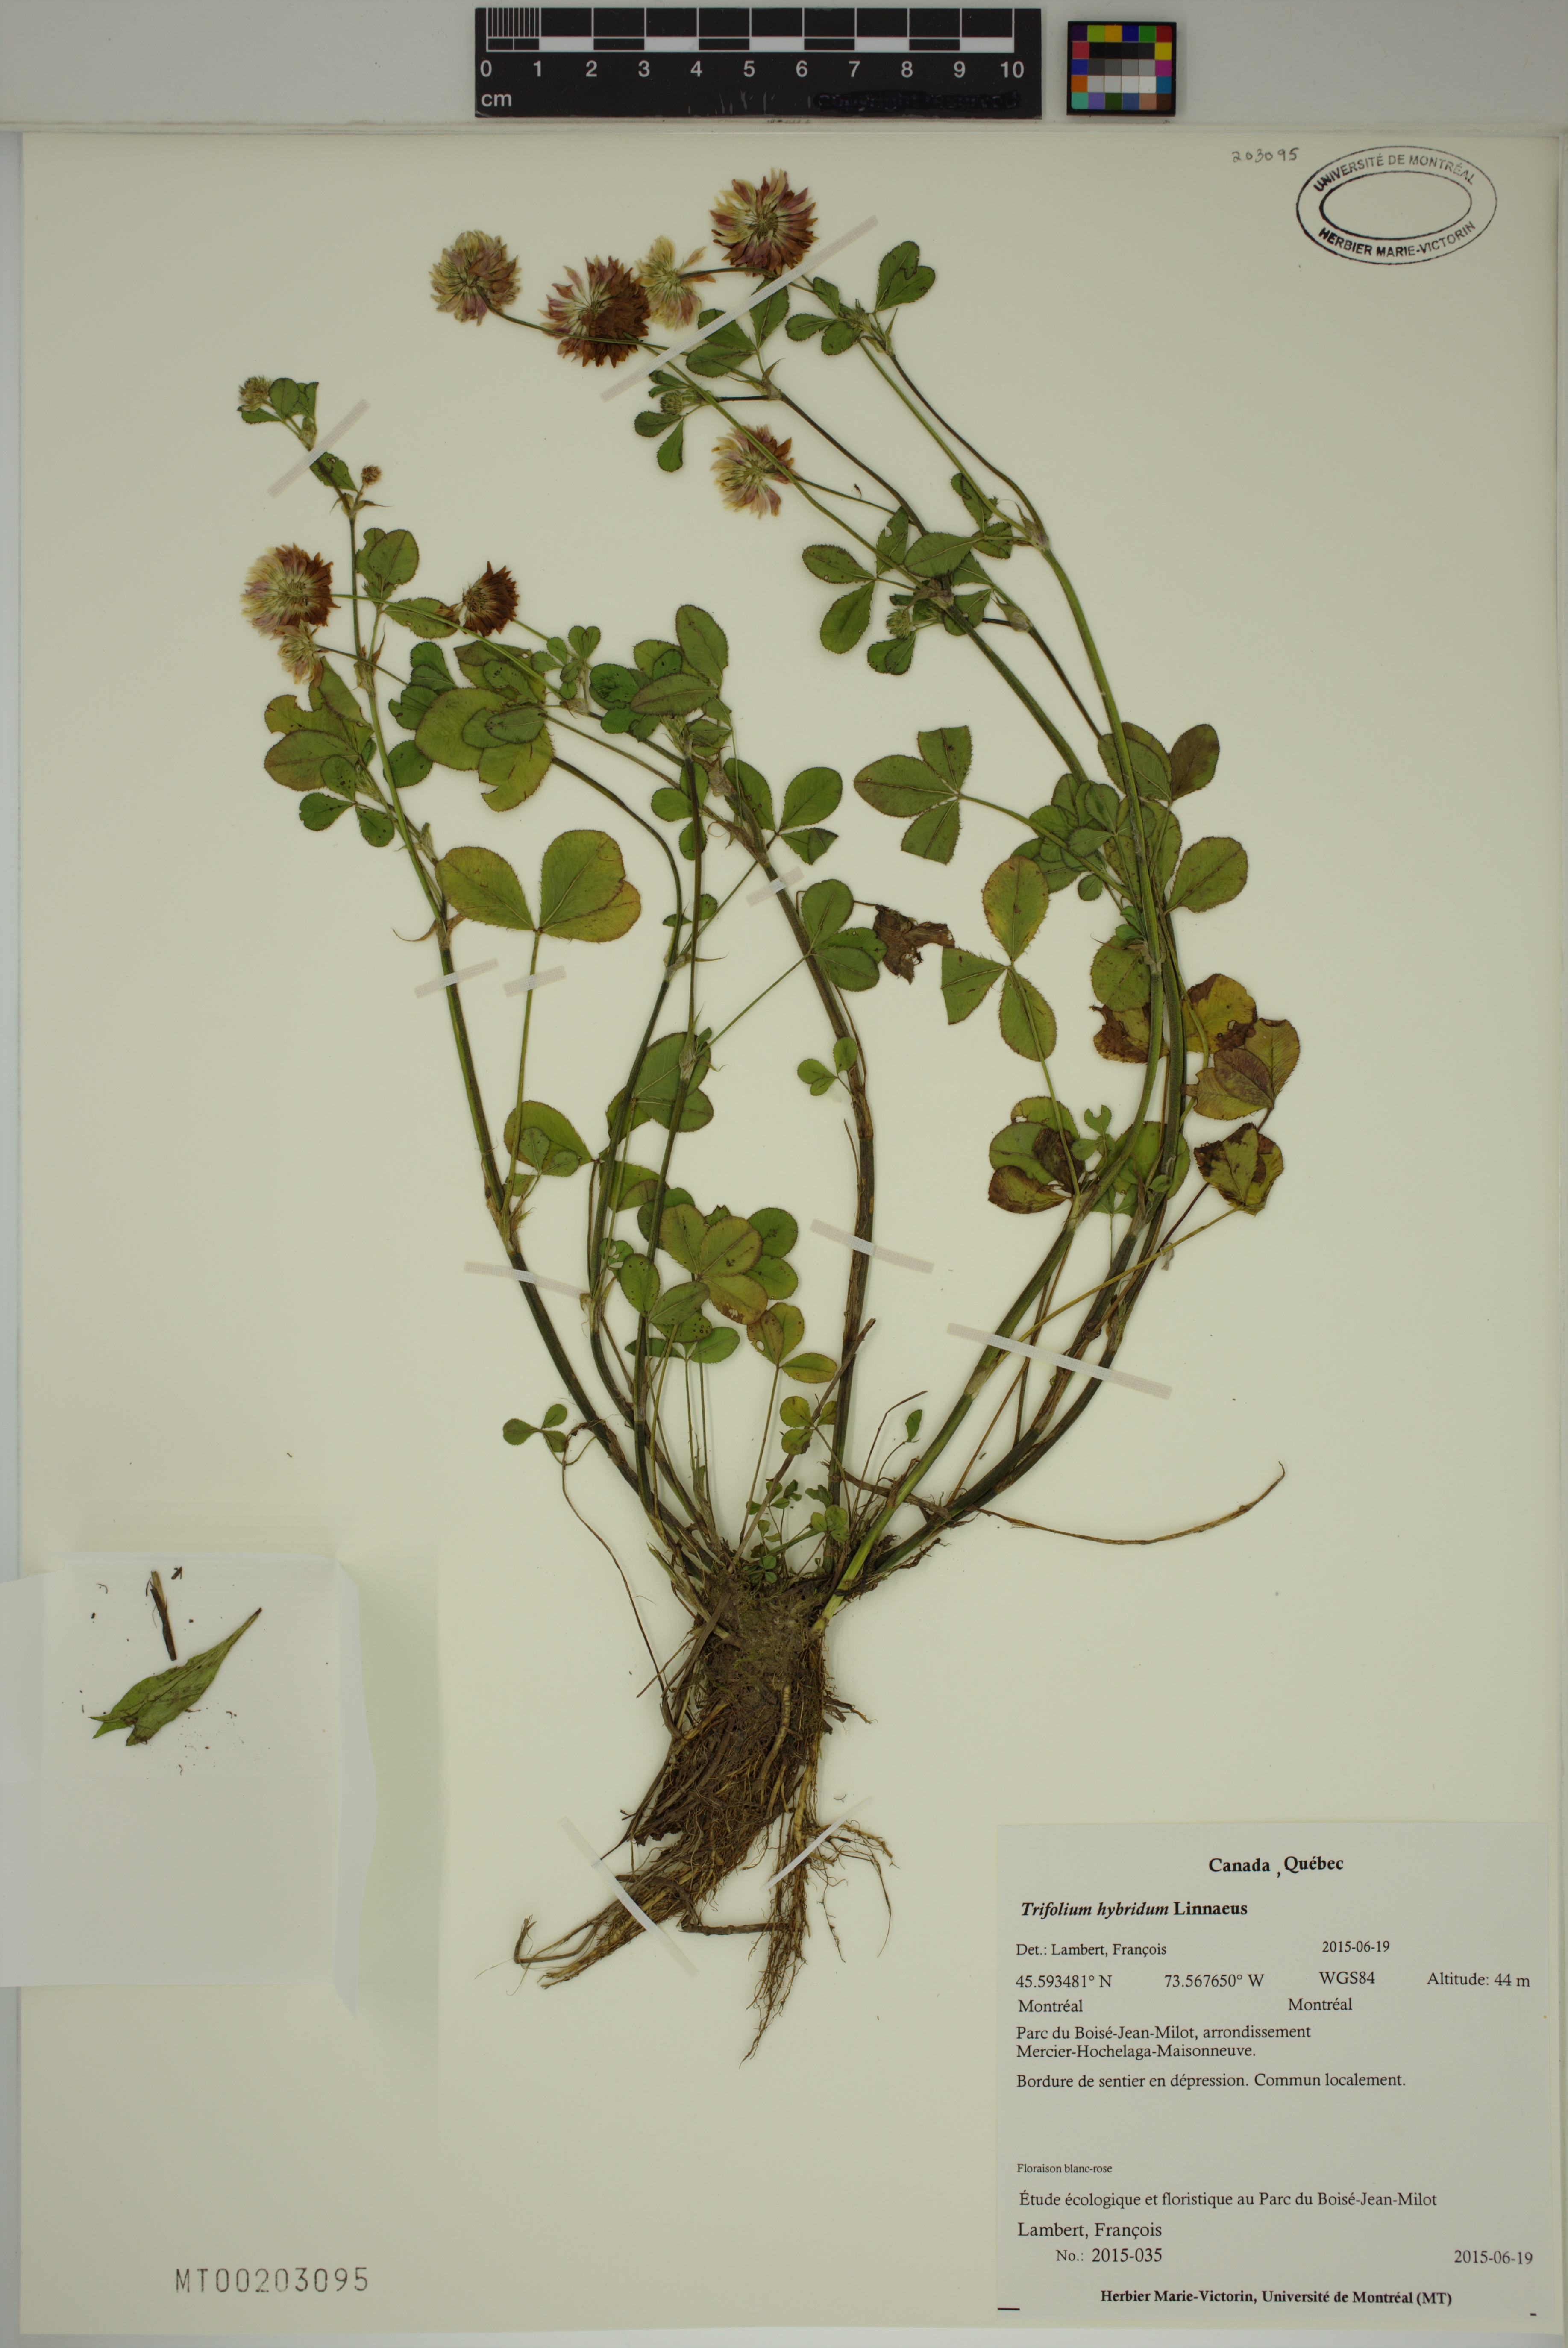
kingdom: Plantae
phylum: Tracheophyta
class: Magnoliopsida
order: Fabales
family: Fabaceae
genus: Trifolium
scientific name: Trifolium hybridum
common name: Alsike clover
